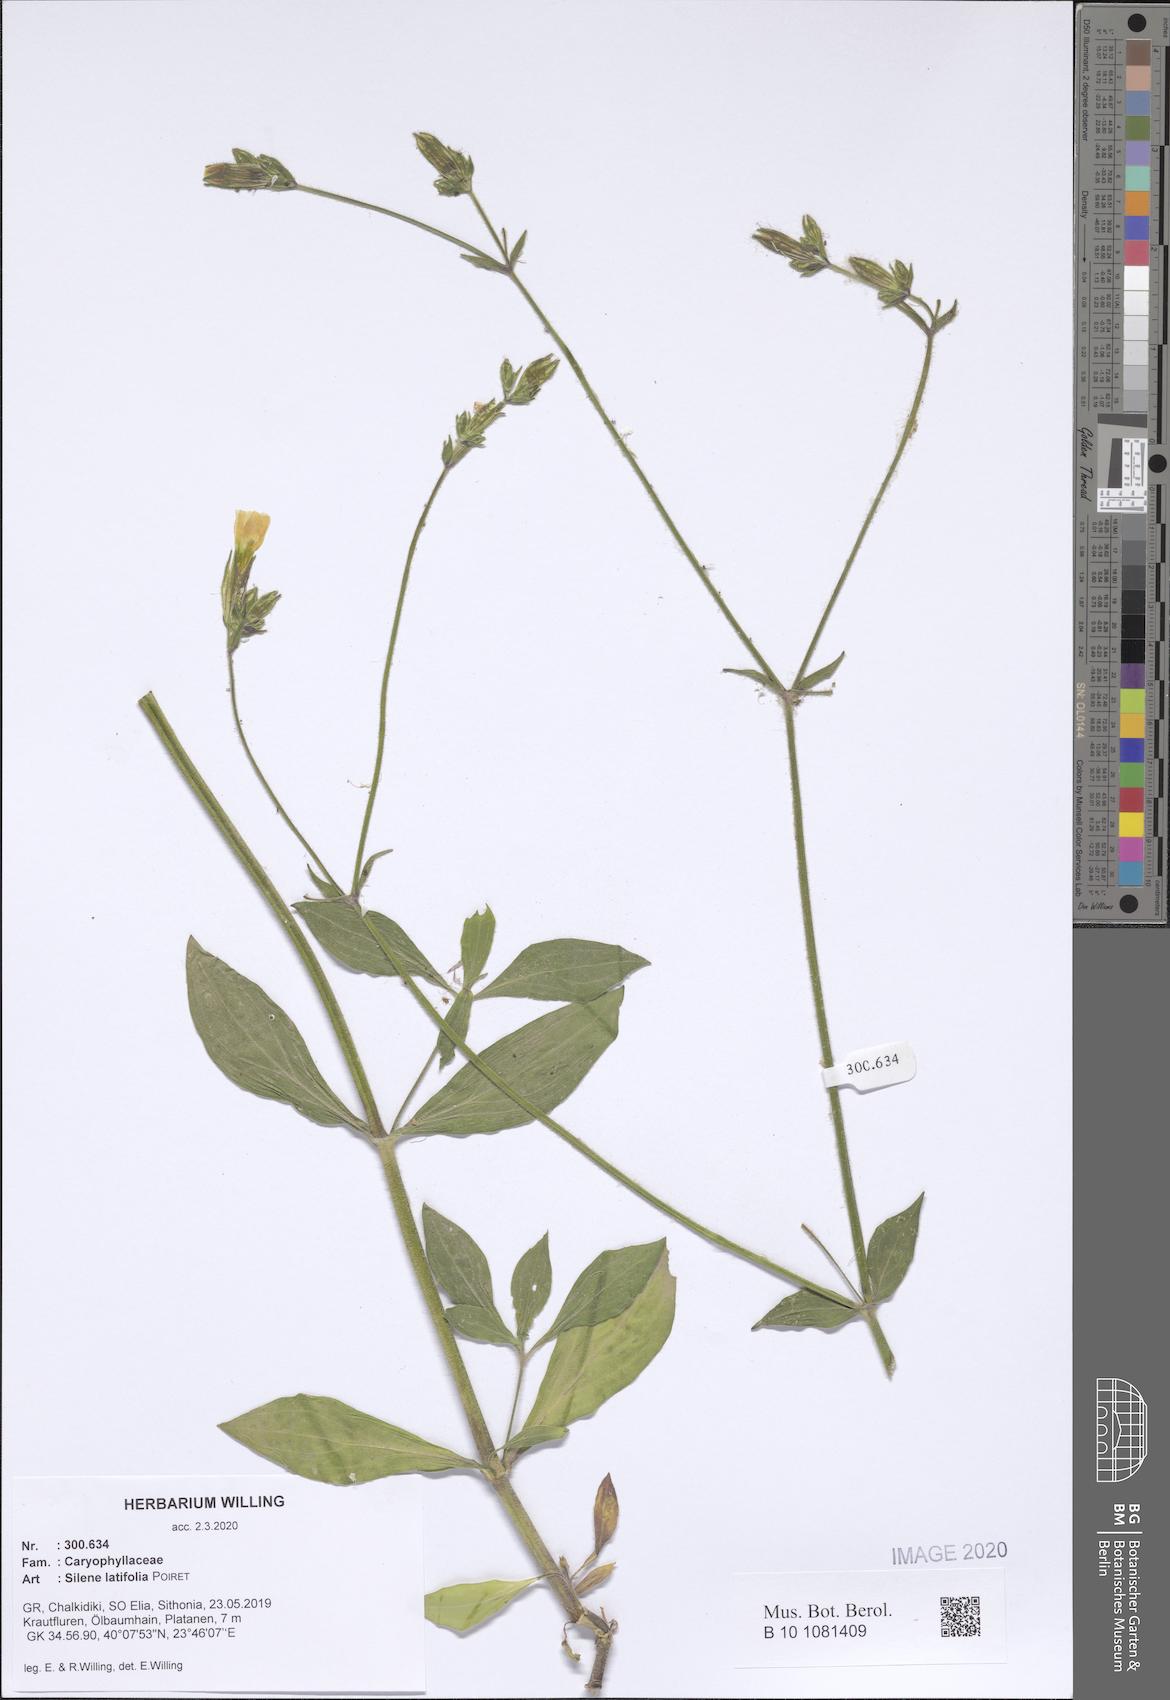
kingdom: Plantae
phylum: Tracheophyta
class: Magnoliopsida
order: Caryophyllales
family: Caryophyllaceae
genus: Silene
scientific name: Silene latifolia
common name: White campion
